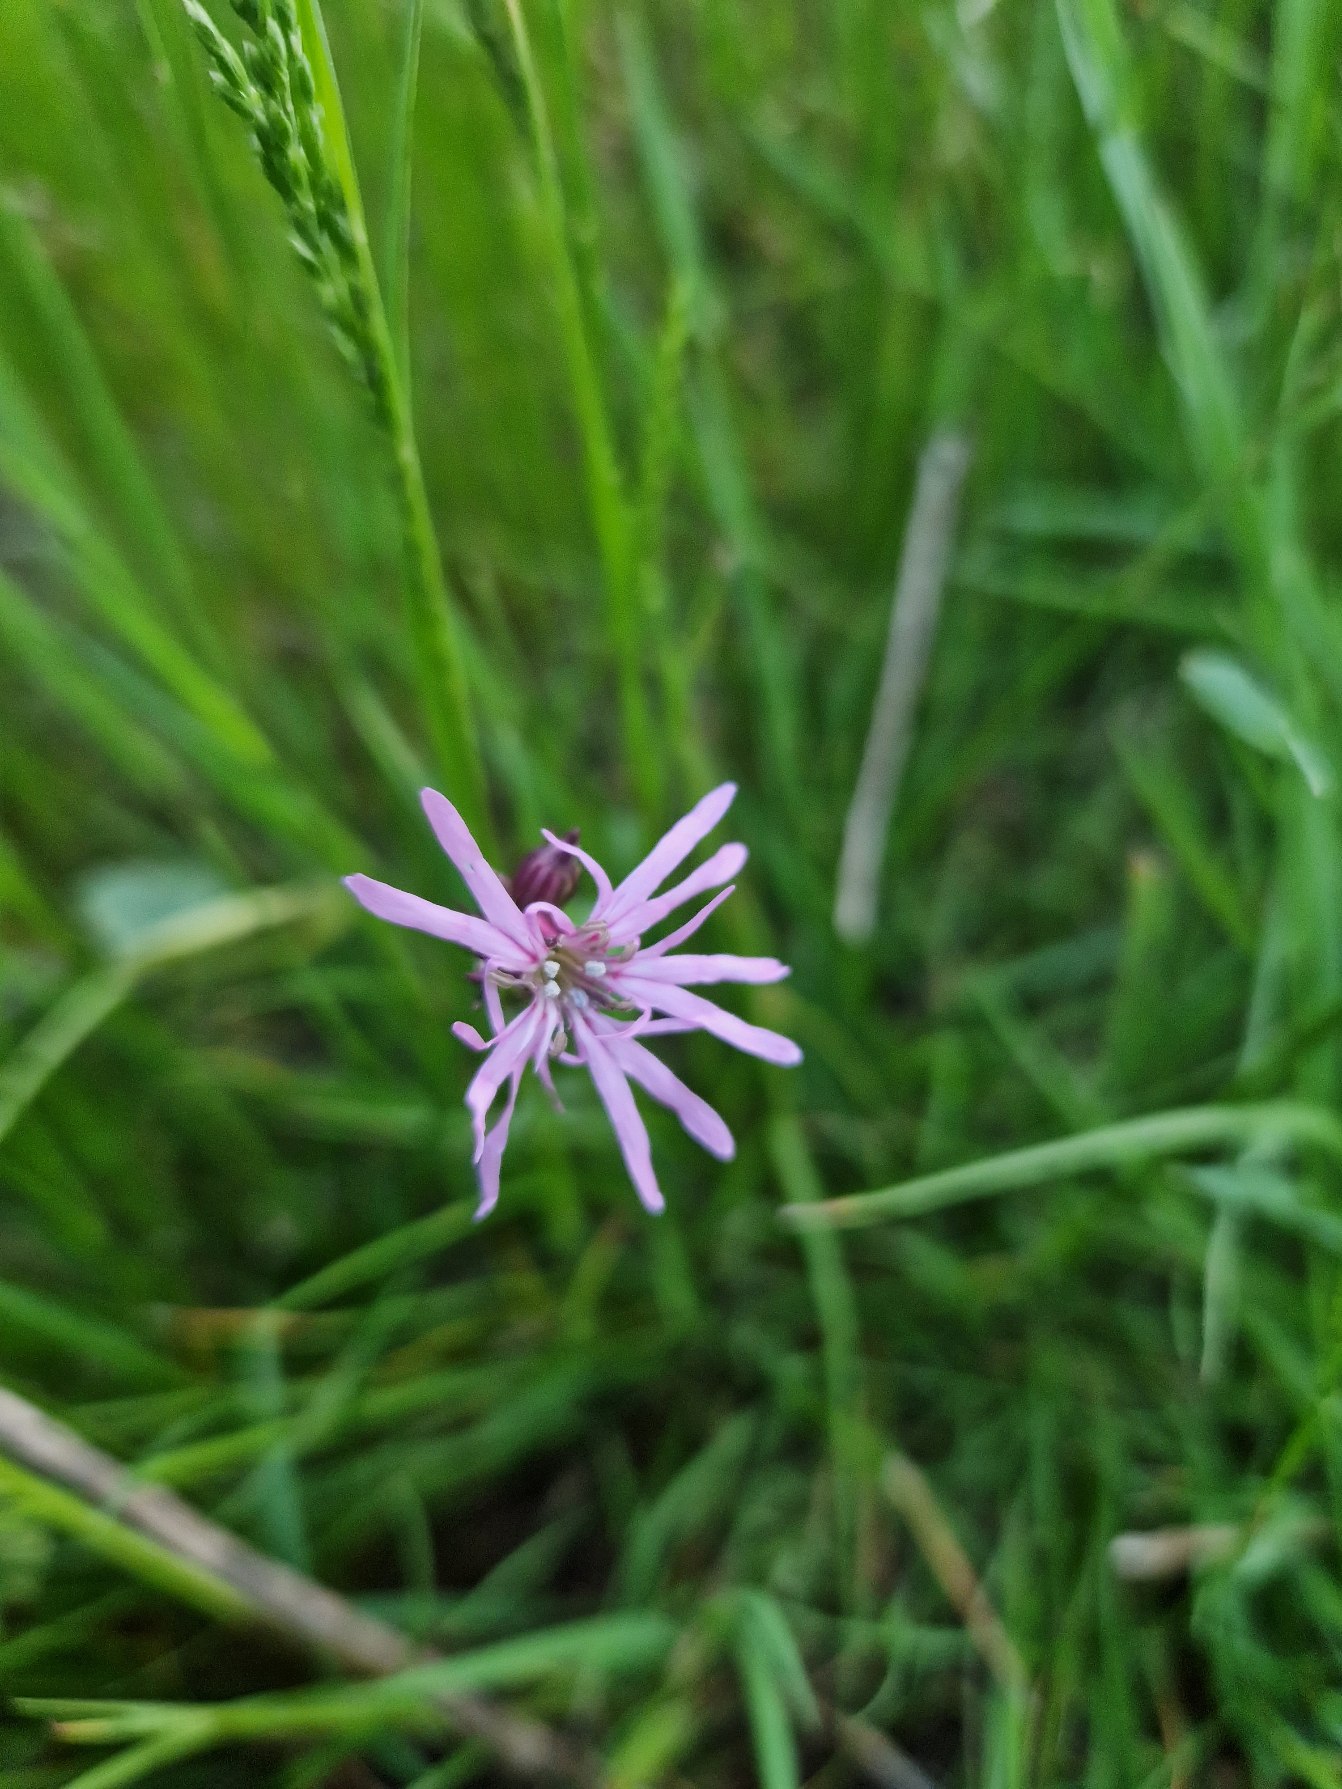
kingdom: Plantae
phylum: Tracheophyta
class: Magnoliopsida
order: Caryophyllales
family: Caryophyllaceae
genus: Silene
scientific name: Silene flos-cuculi
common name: Trævlekrone
